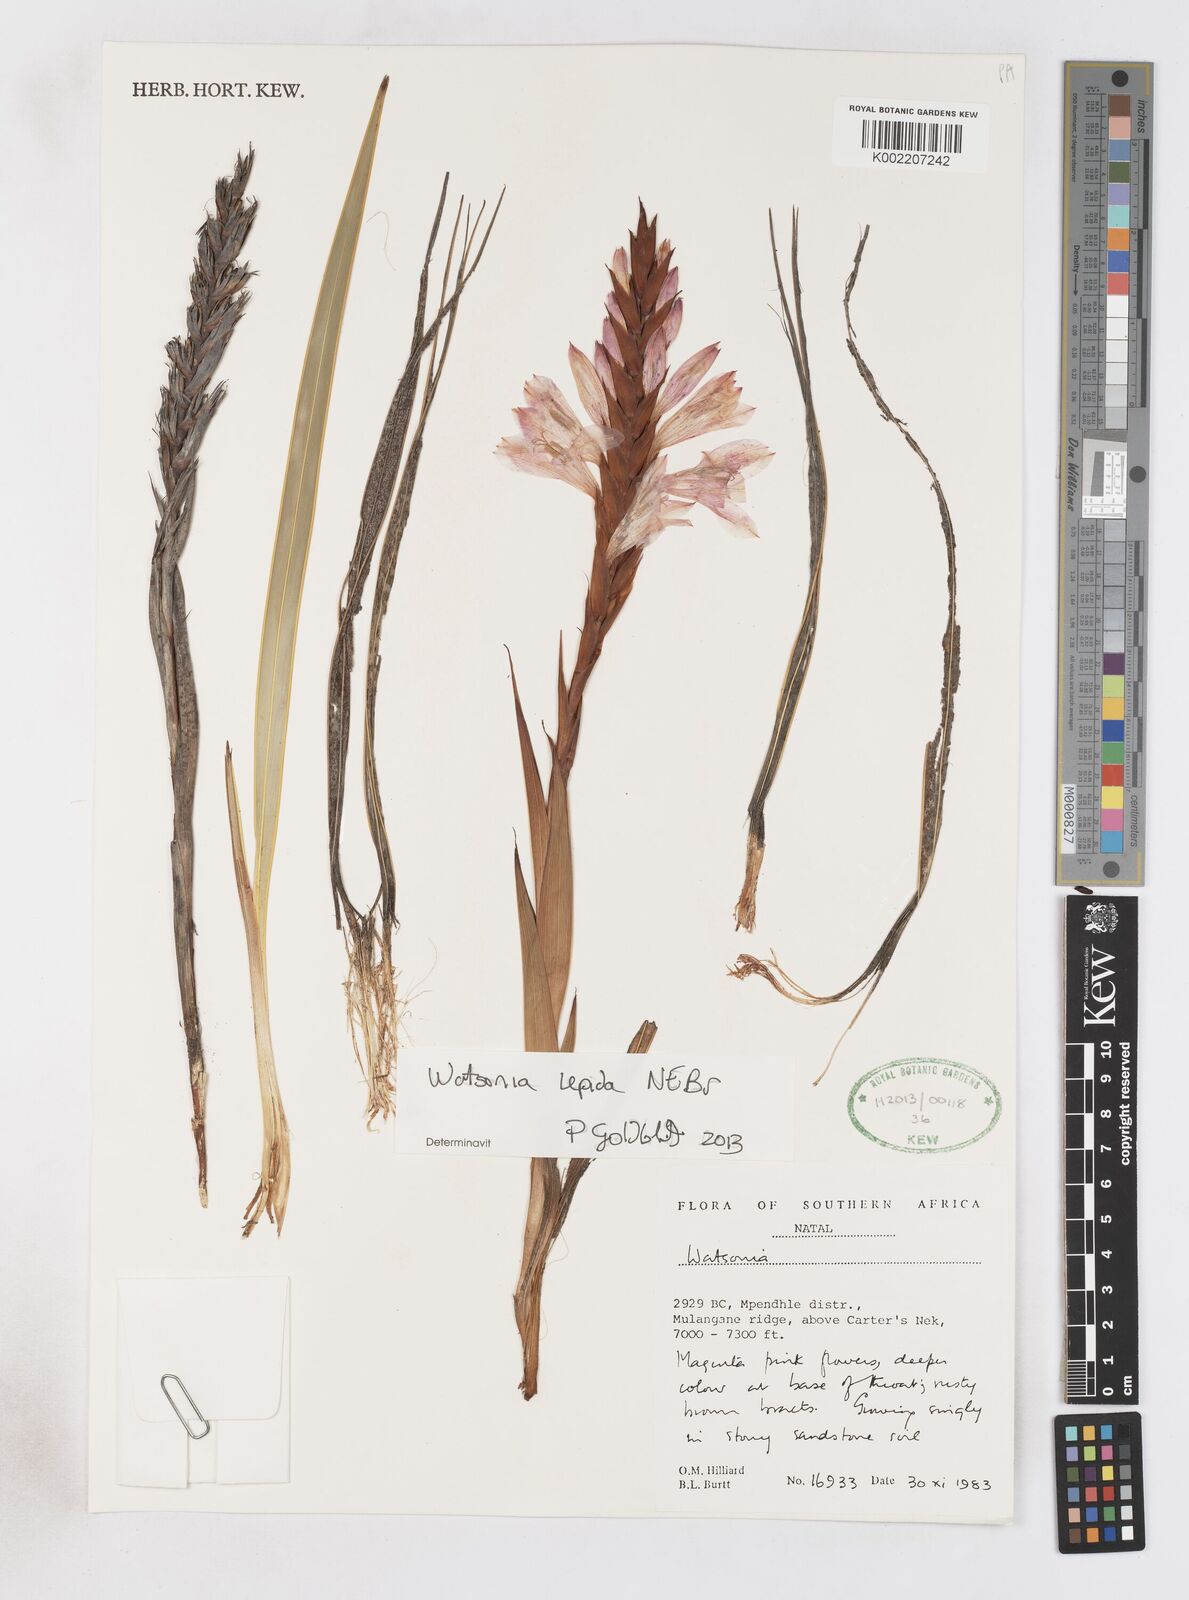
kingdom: Plantae
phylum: Tracheophyta
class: Liliopsida
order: Asparagales
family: Iridaceae
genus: Watsonia
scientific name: Watsonia lepida
